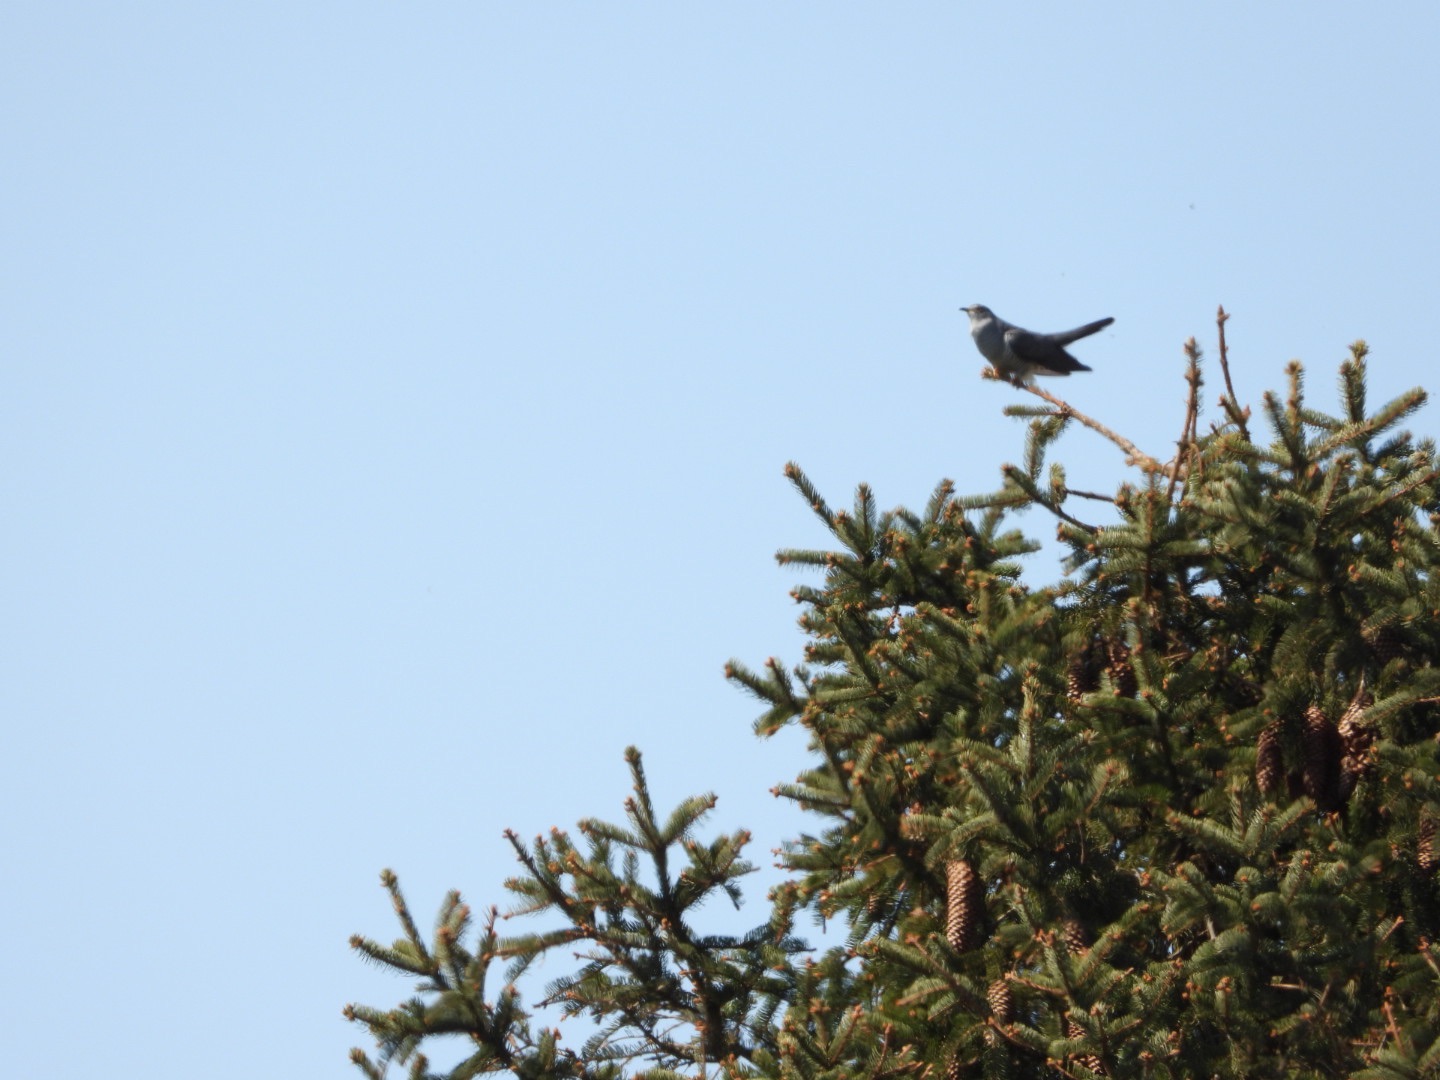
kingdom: Animalia
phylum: Chordata
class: Aves
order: Cuculiformes
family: Cuculidae
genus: Cuculus
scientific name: Cuculus canorus
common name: Gøg
